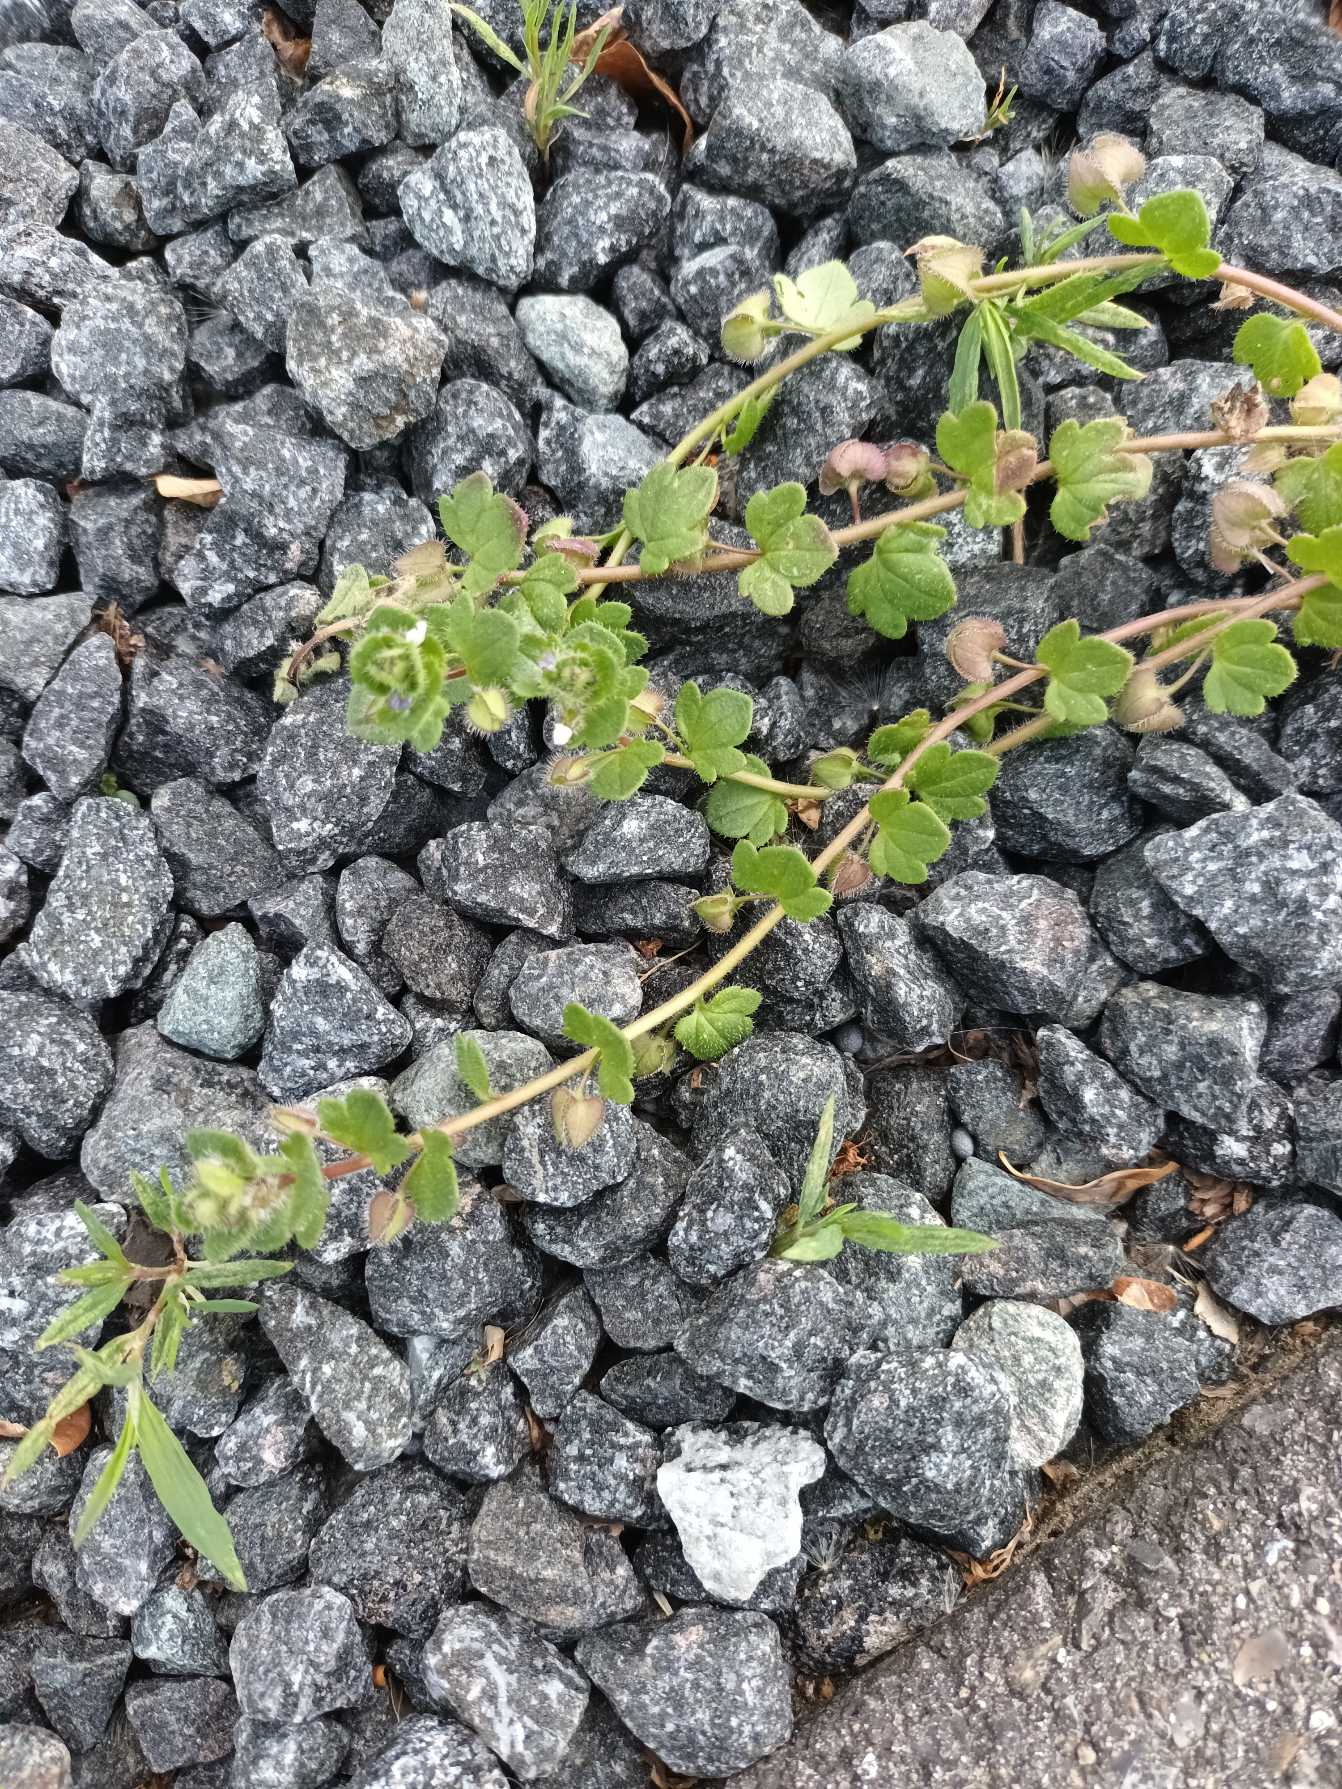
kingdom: Plantae
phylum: Tracheophyta
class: Magnoliopsida
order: Lamiales
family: Plantaginaceae
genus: Veronica
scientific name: Veronica sublobata
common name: Krat-ærenpris
